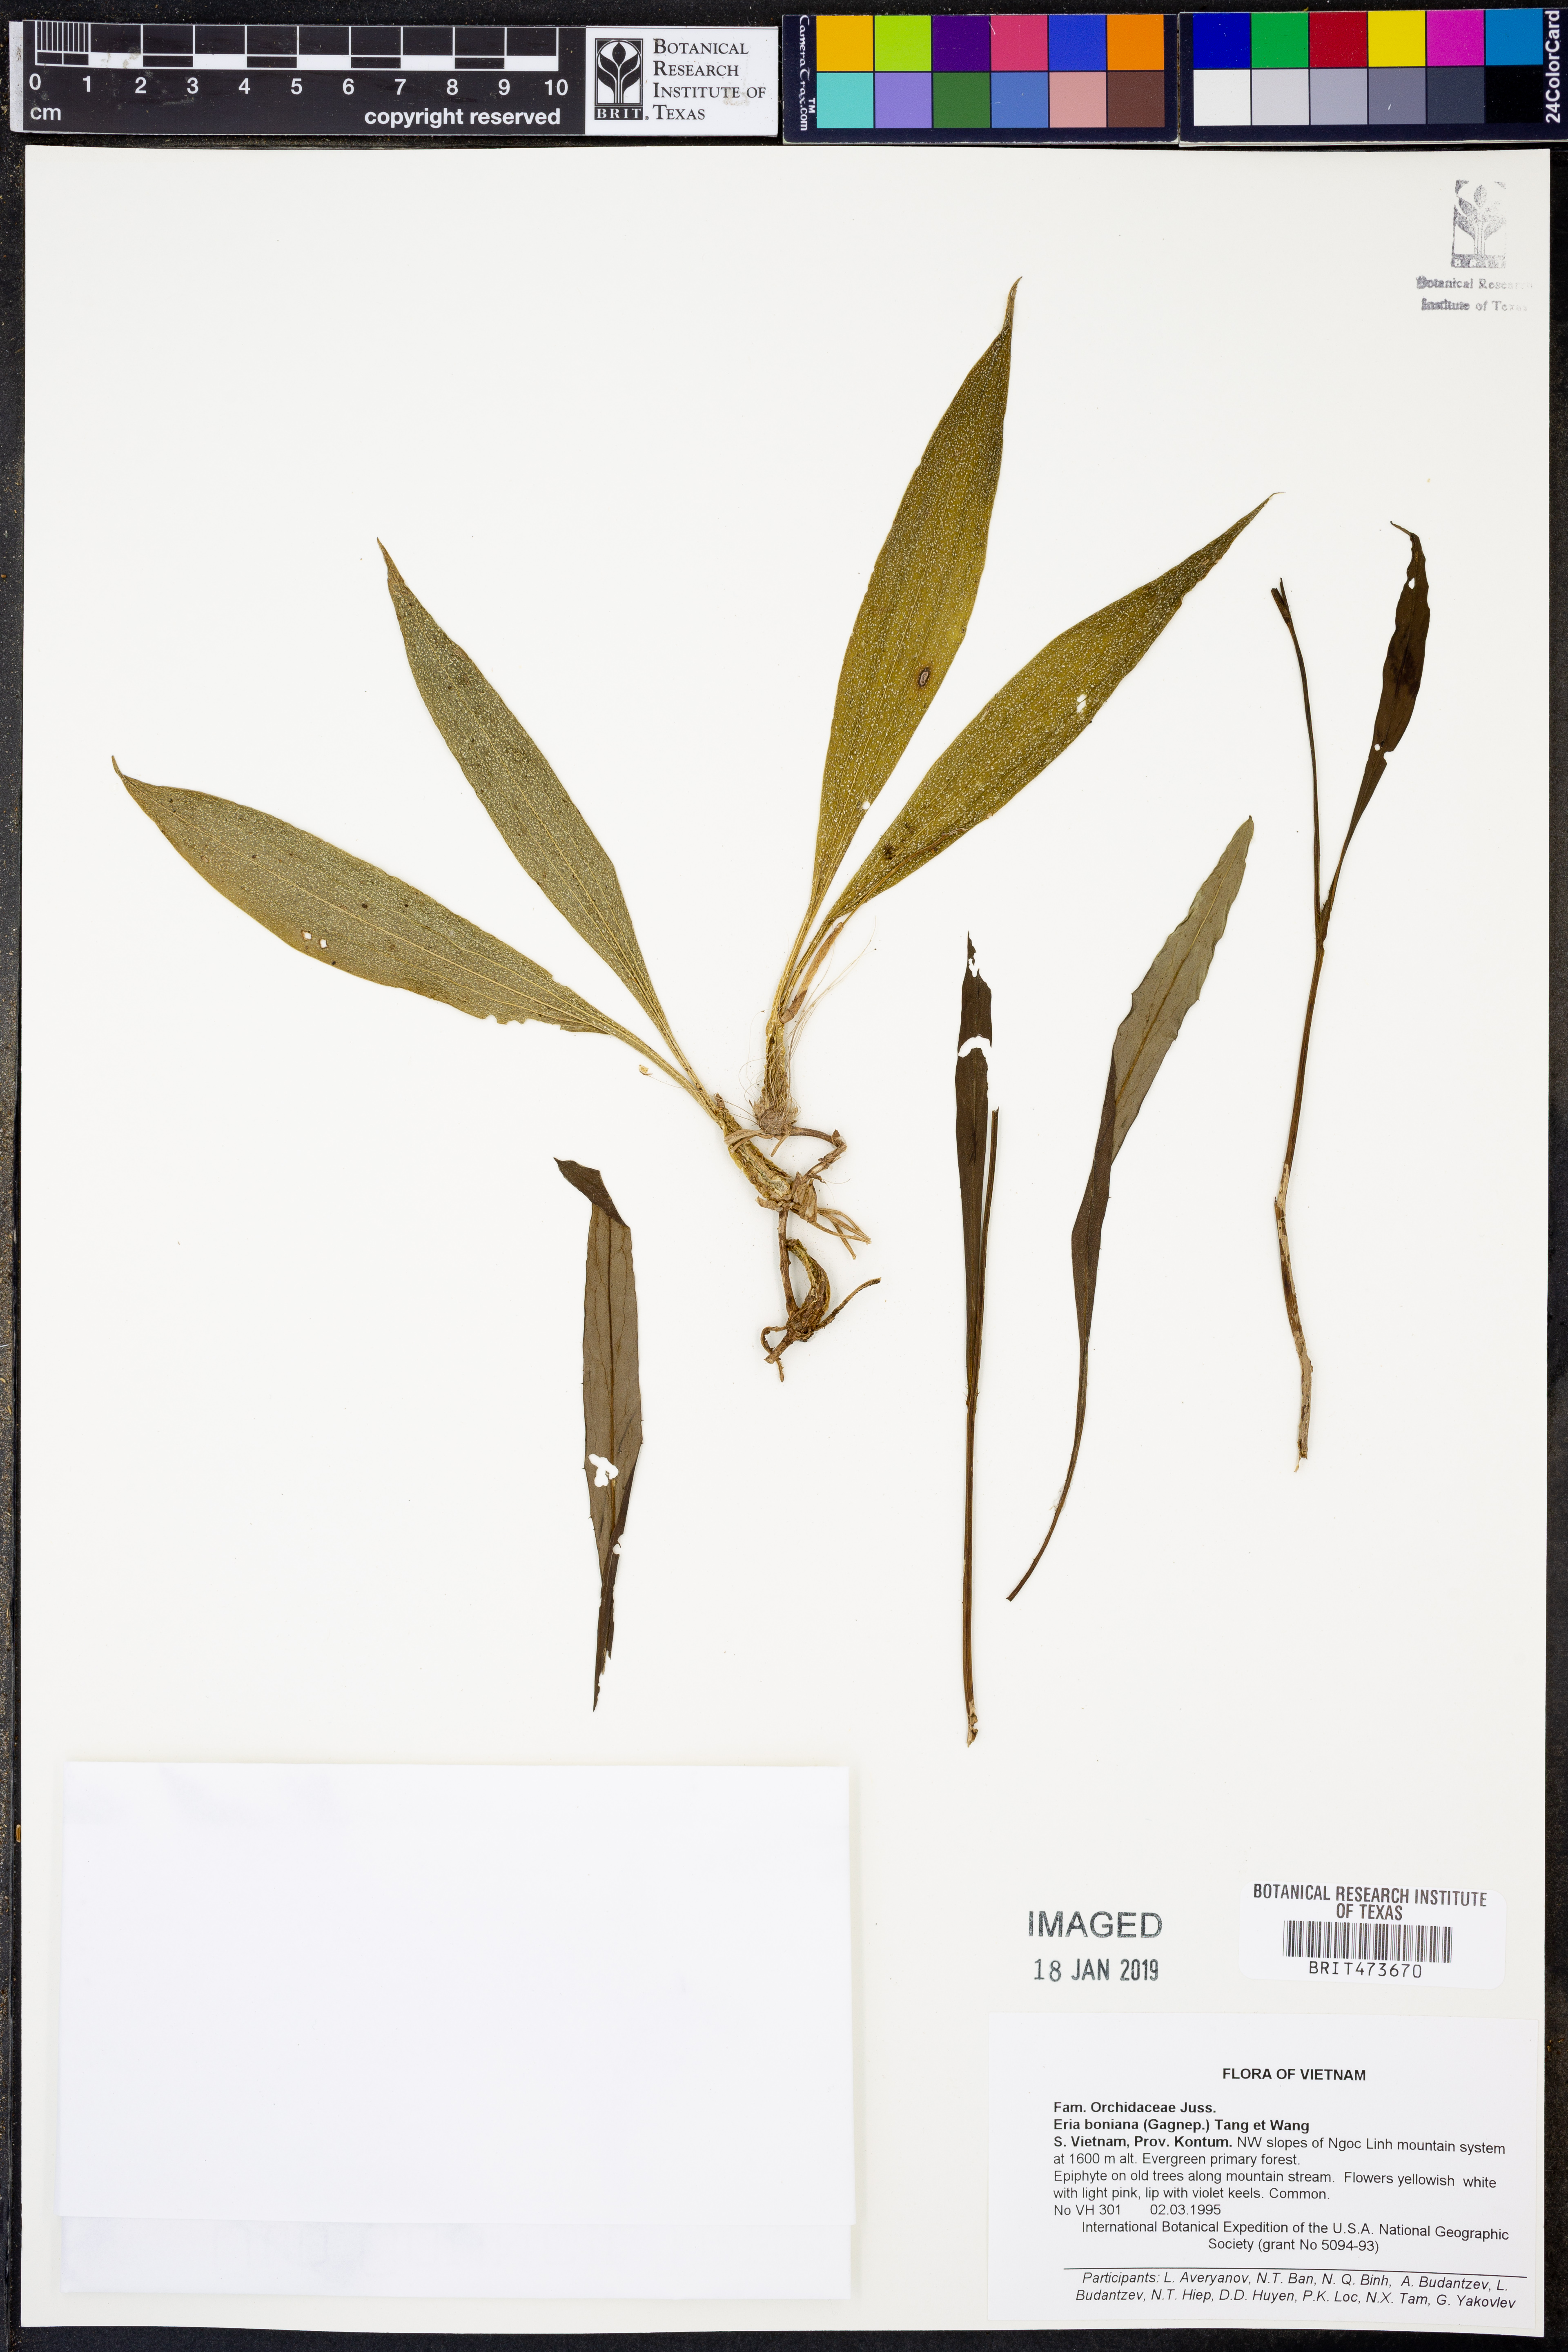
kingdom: Plantae
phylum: Tracheophyta
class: Liliopsida
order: Asparagales
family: Orchidaceae
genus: Eria
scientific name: Eria scabrilinguis
